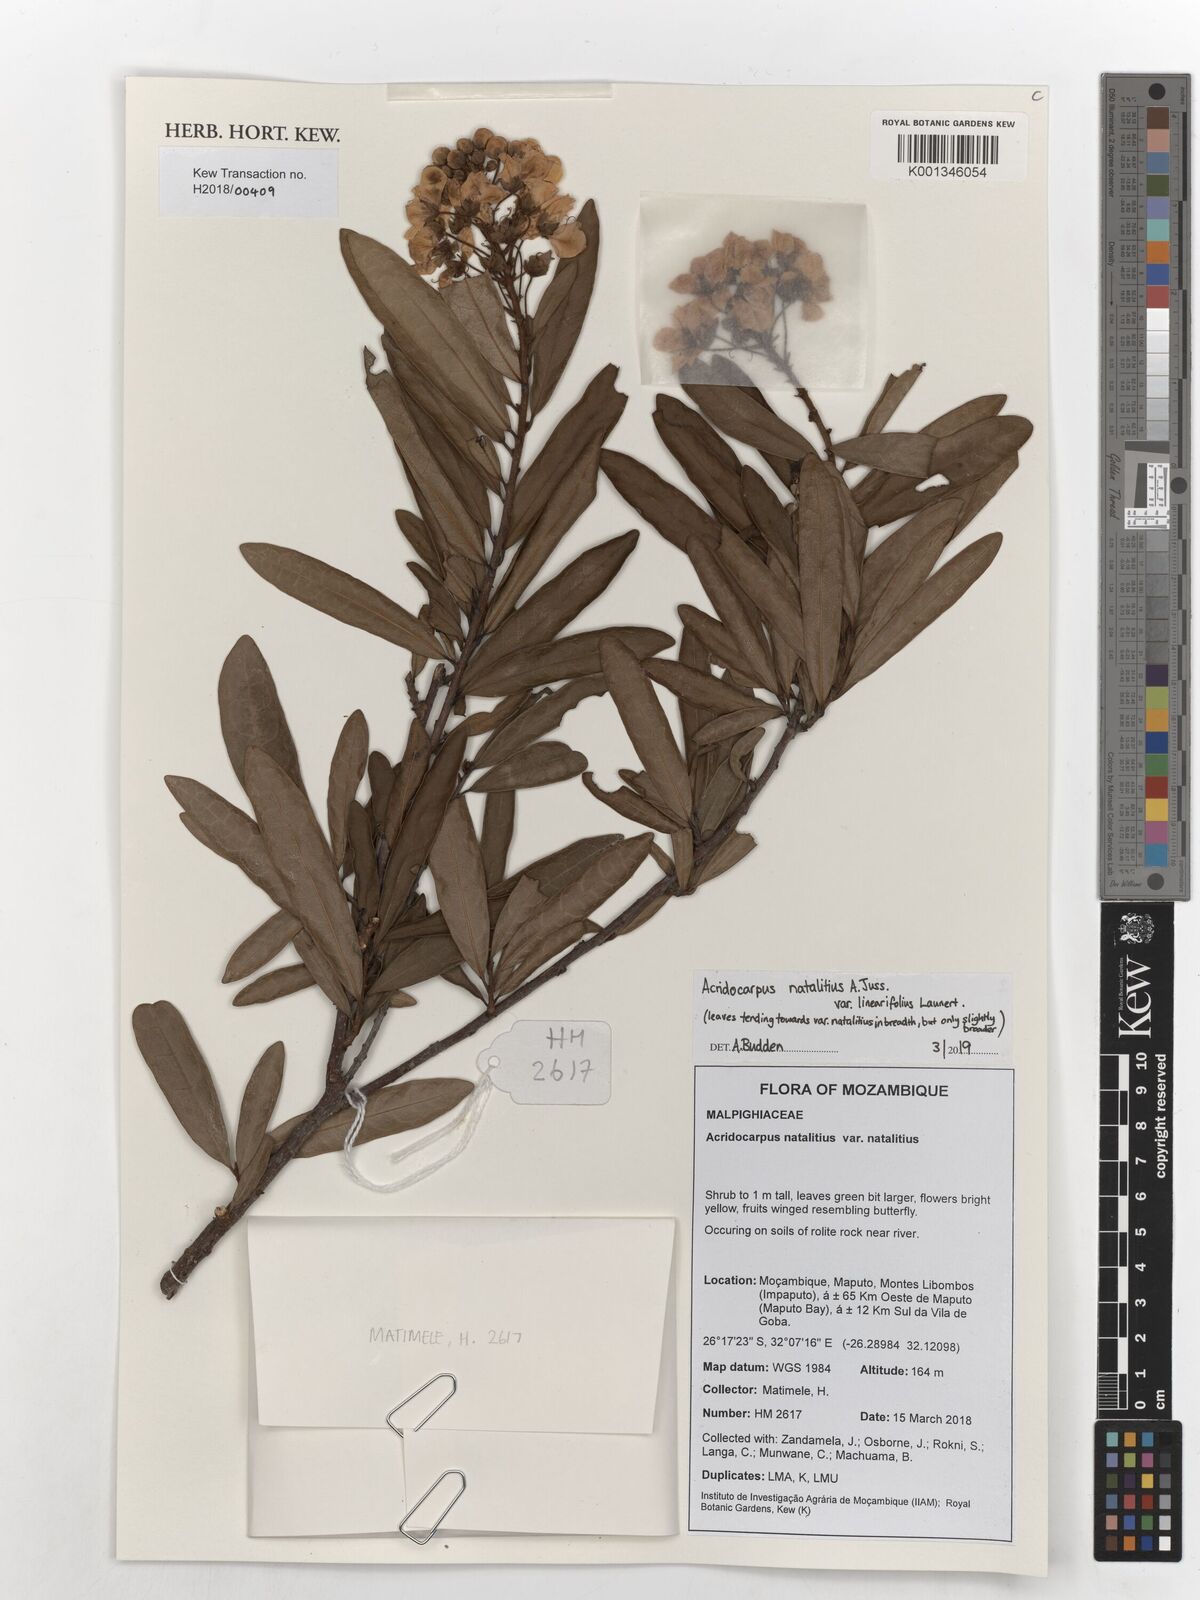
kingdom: Plantae
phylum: Tracheophyta
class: Magnoliopsida
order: Malpighiales
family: Malpighiaceae
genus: Acridocarpus
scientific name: Acridocarpus natalitius
